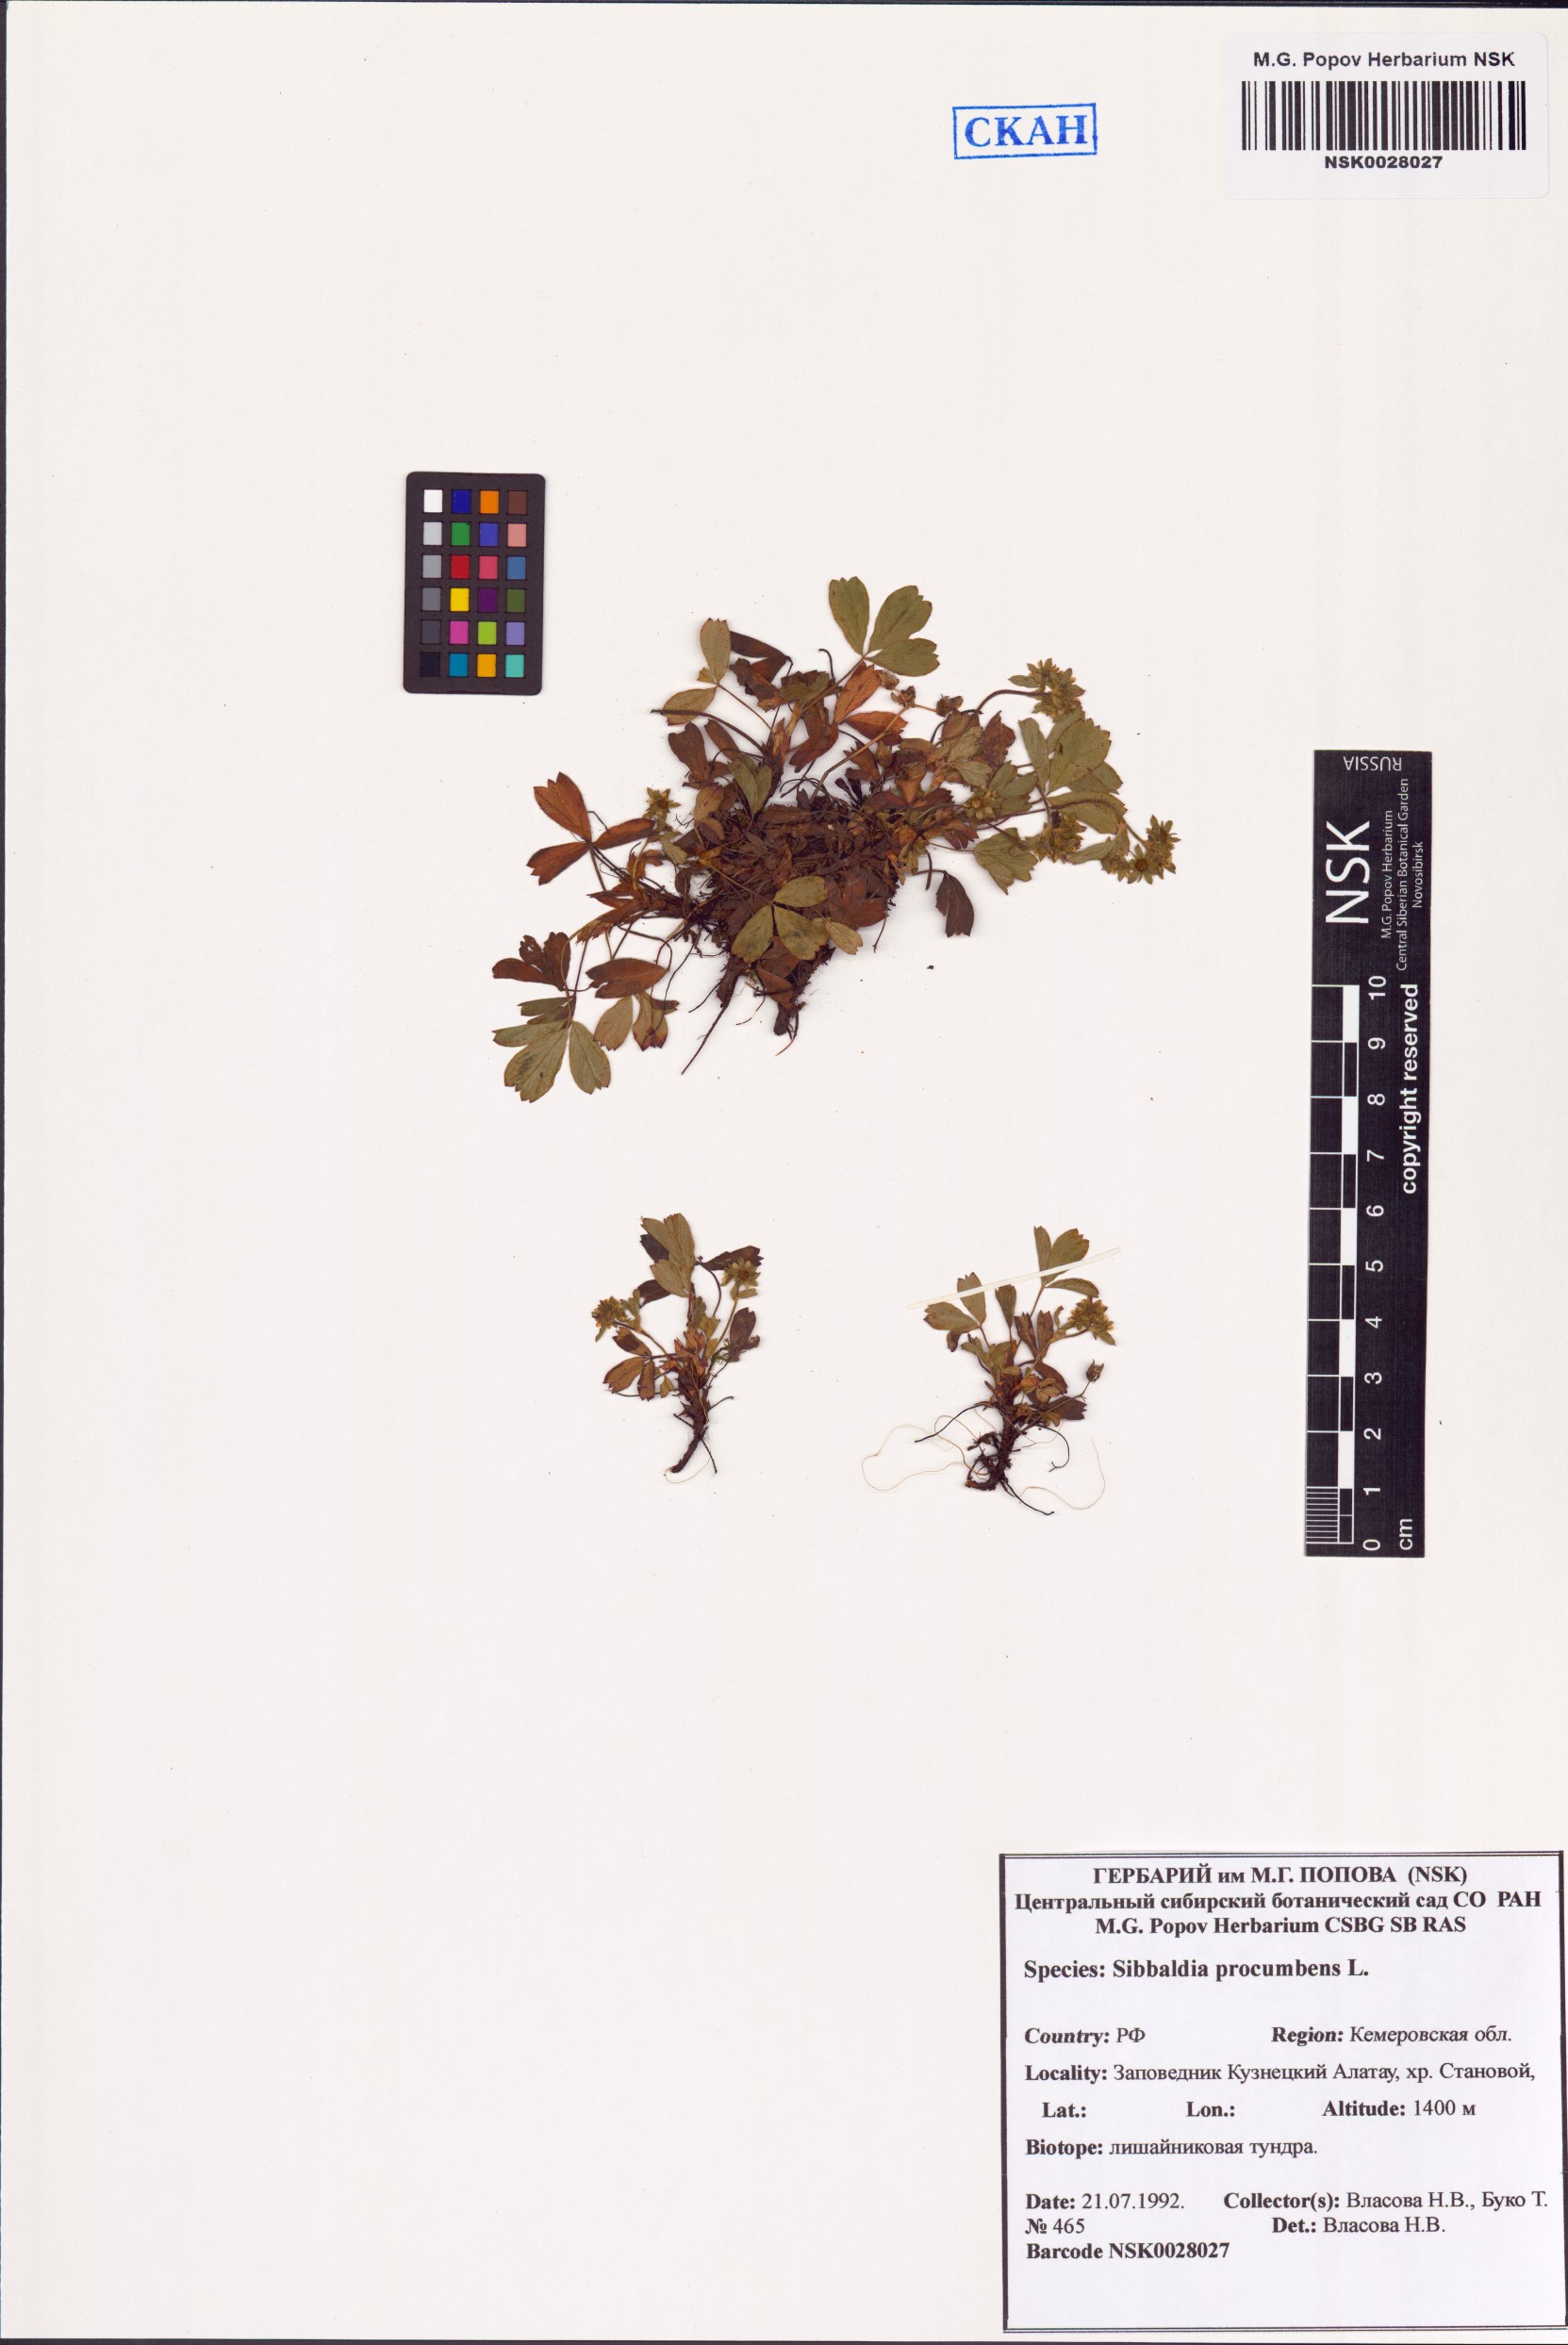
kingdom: Plantae
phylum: Tracheophyta
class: Magnoliopsida
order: Rosales
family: Rosaceae
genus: Sibbaldia
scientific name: Sibbaldia procumbens
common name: Creeping sibbaldia
